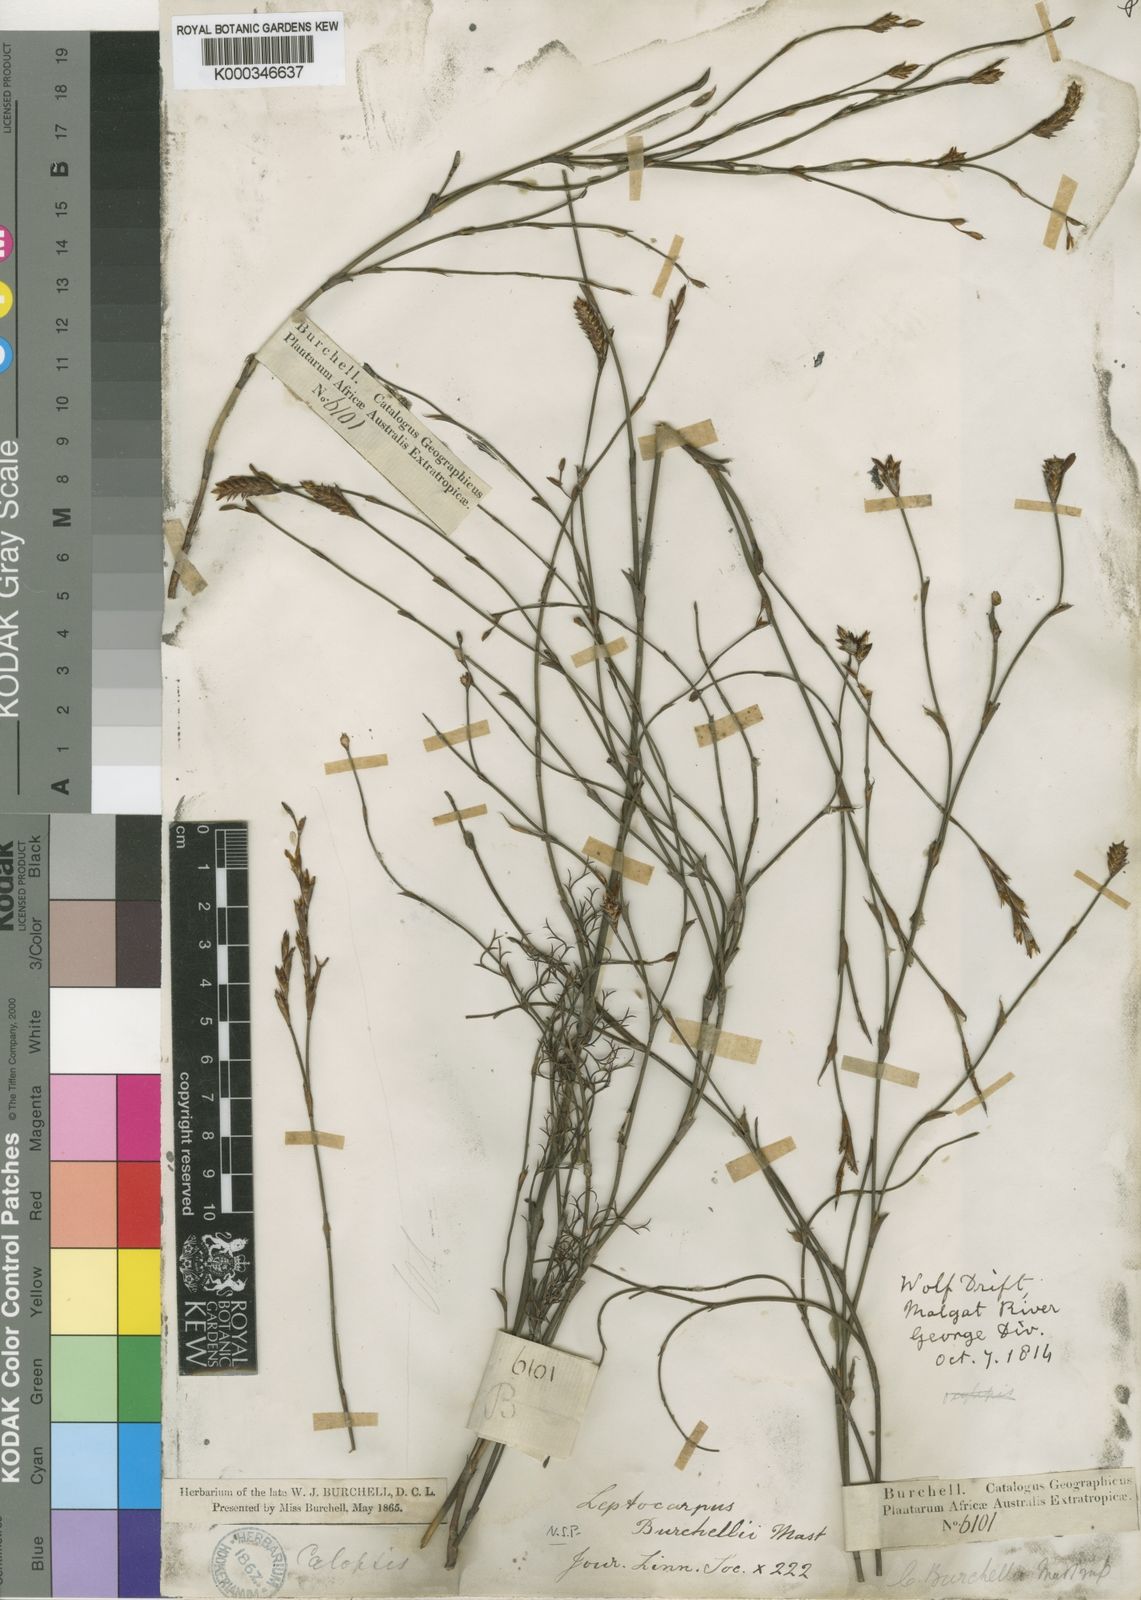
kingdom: Plantae
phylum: Tracheophyta
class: Liliopsida
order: Poales
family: Restionaceae
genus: Restio
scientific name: Restio albotuberculatus
